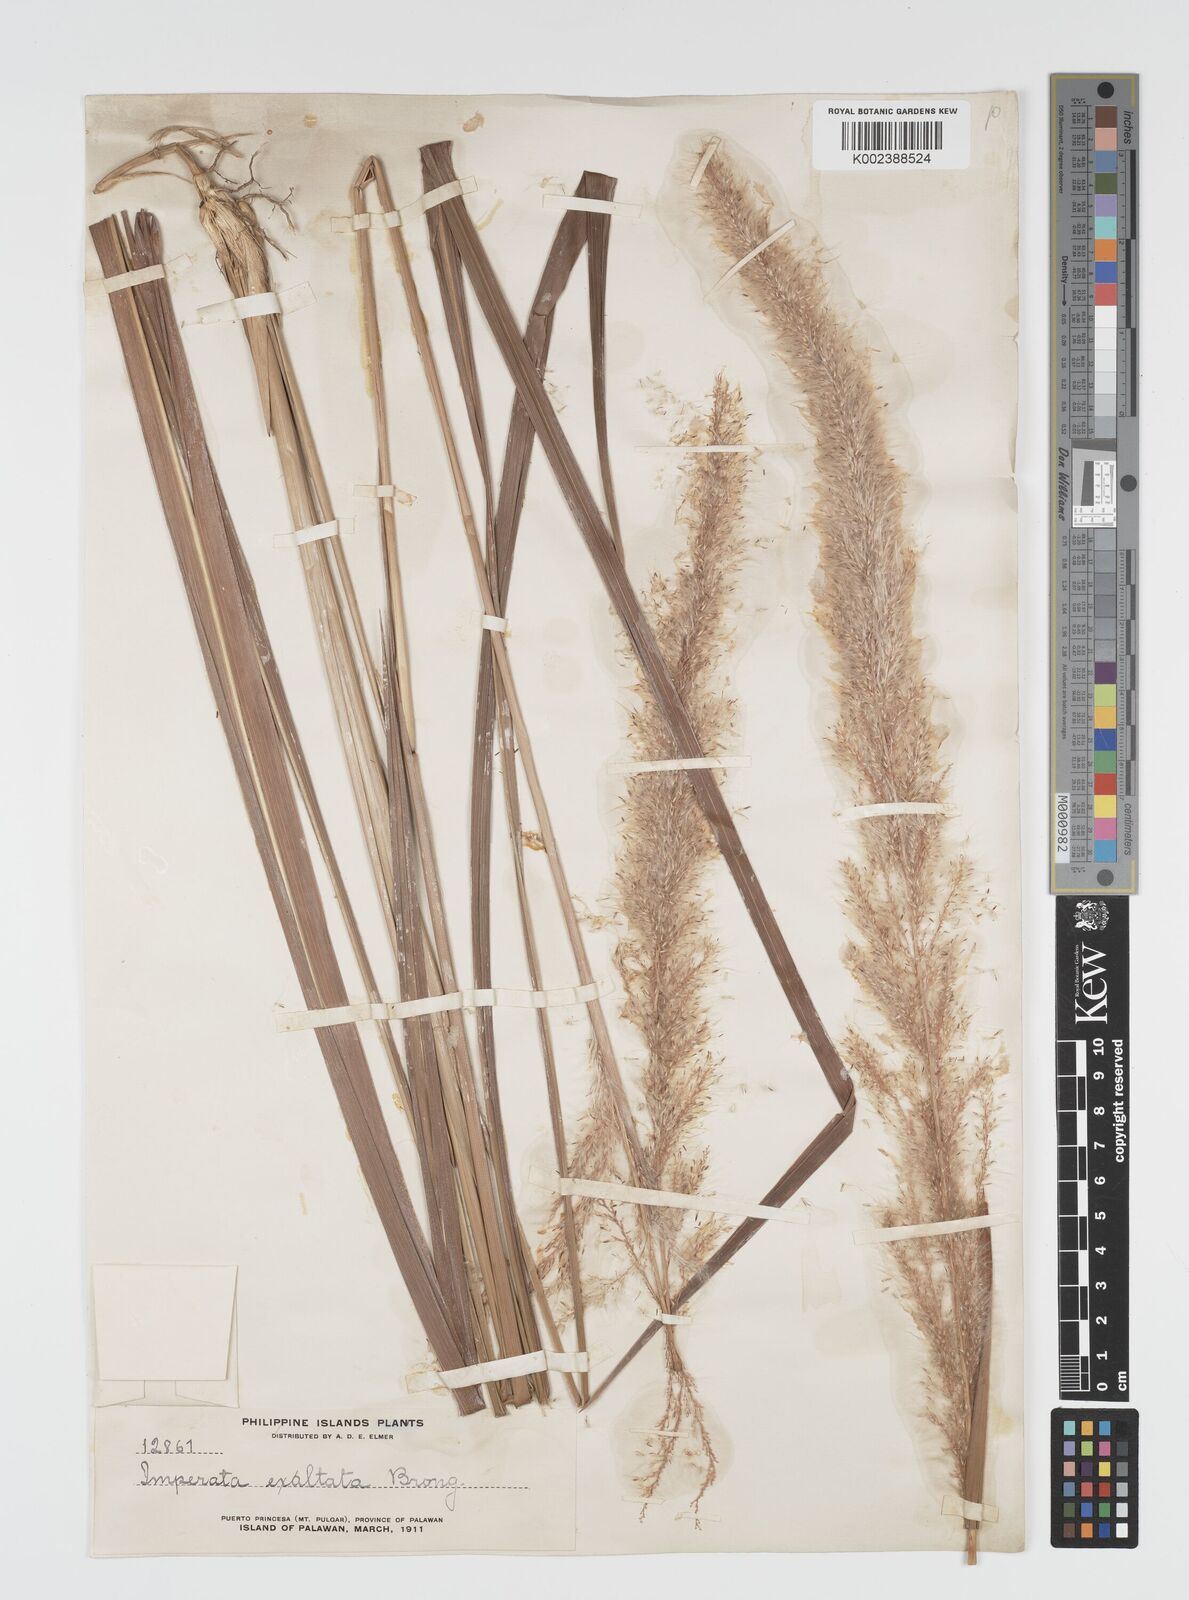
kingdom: Plantae
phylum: Tracheophyta
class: Liliopsida
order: Poales
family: Poaceae
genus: Imperata
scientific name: Imperata conferta
